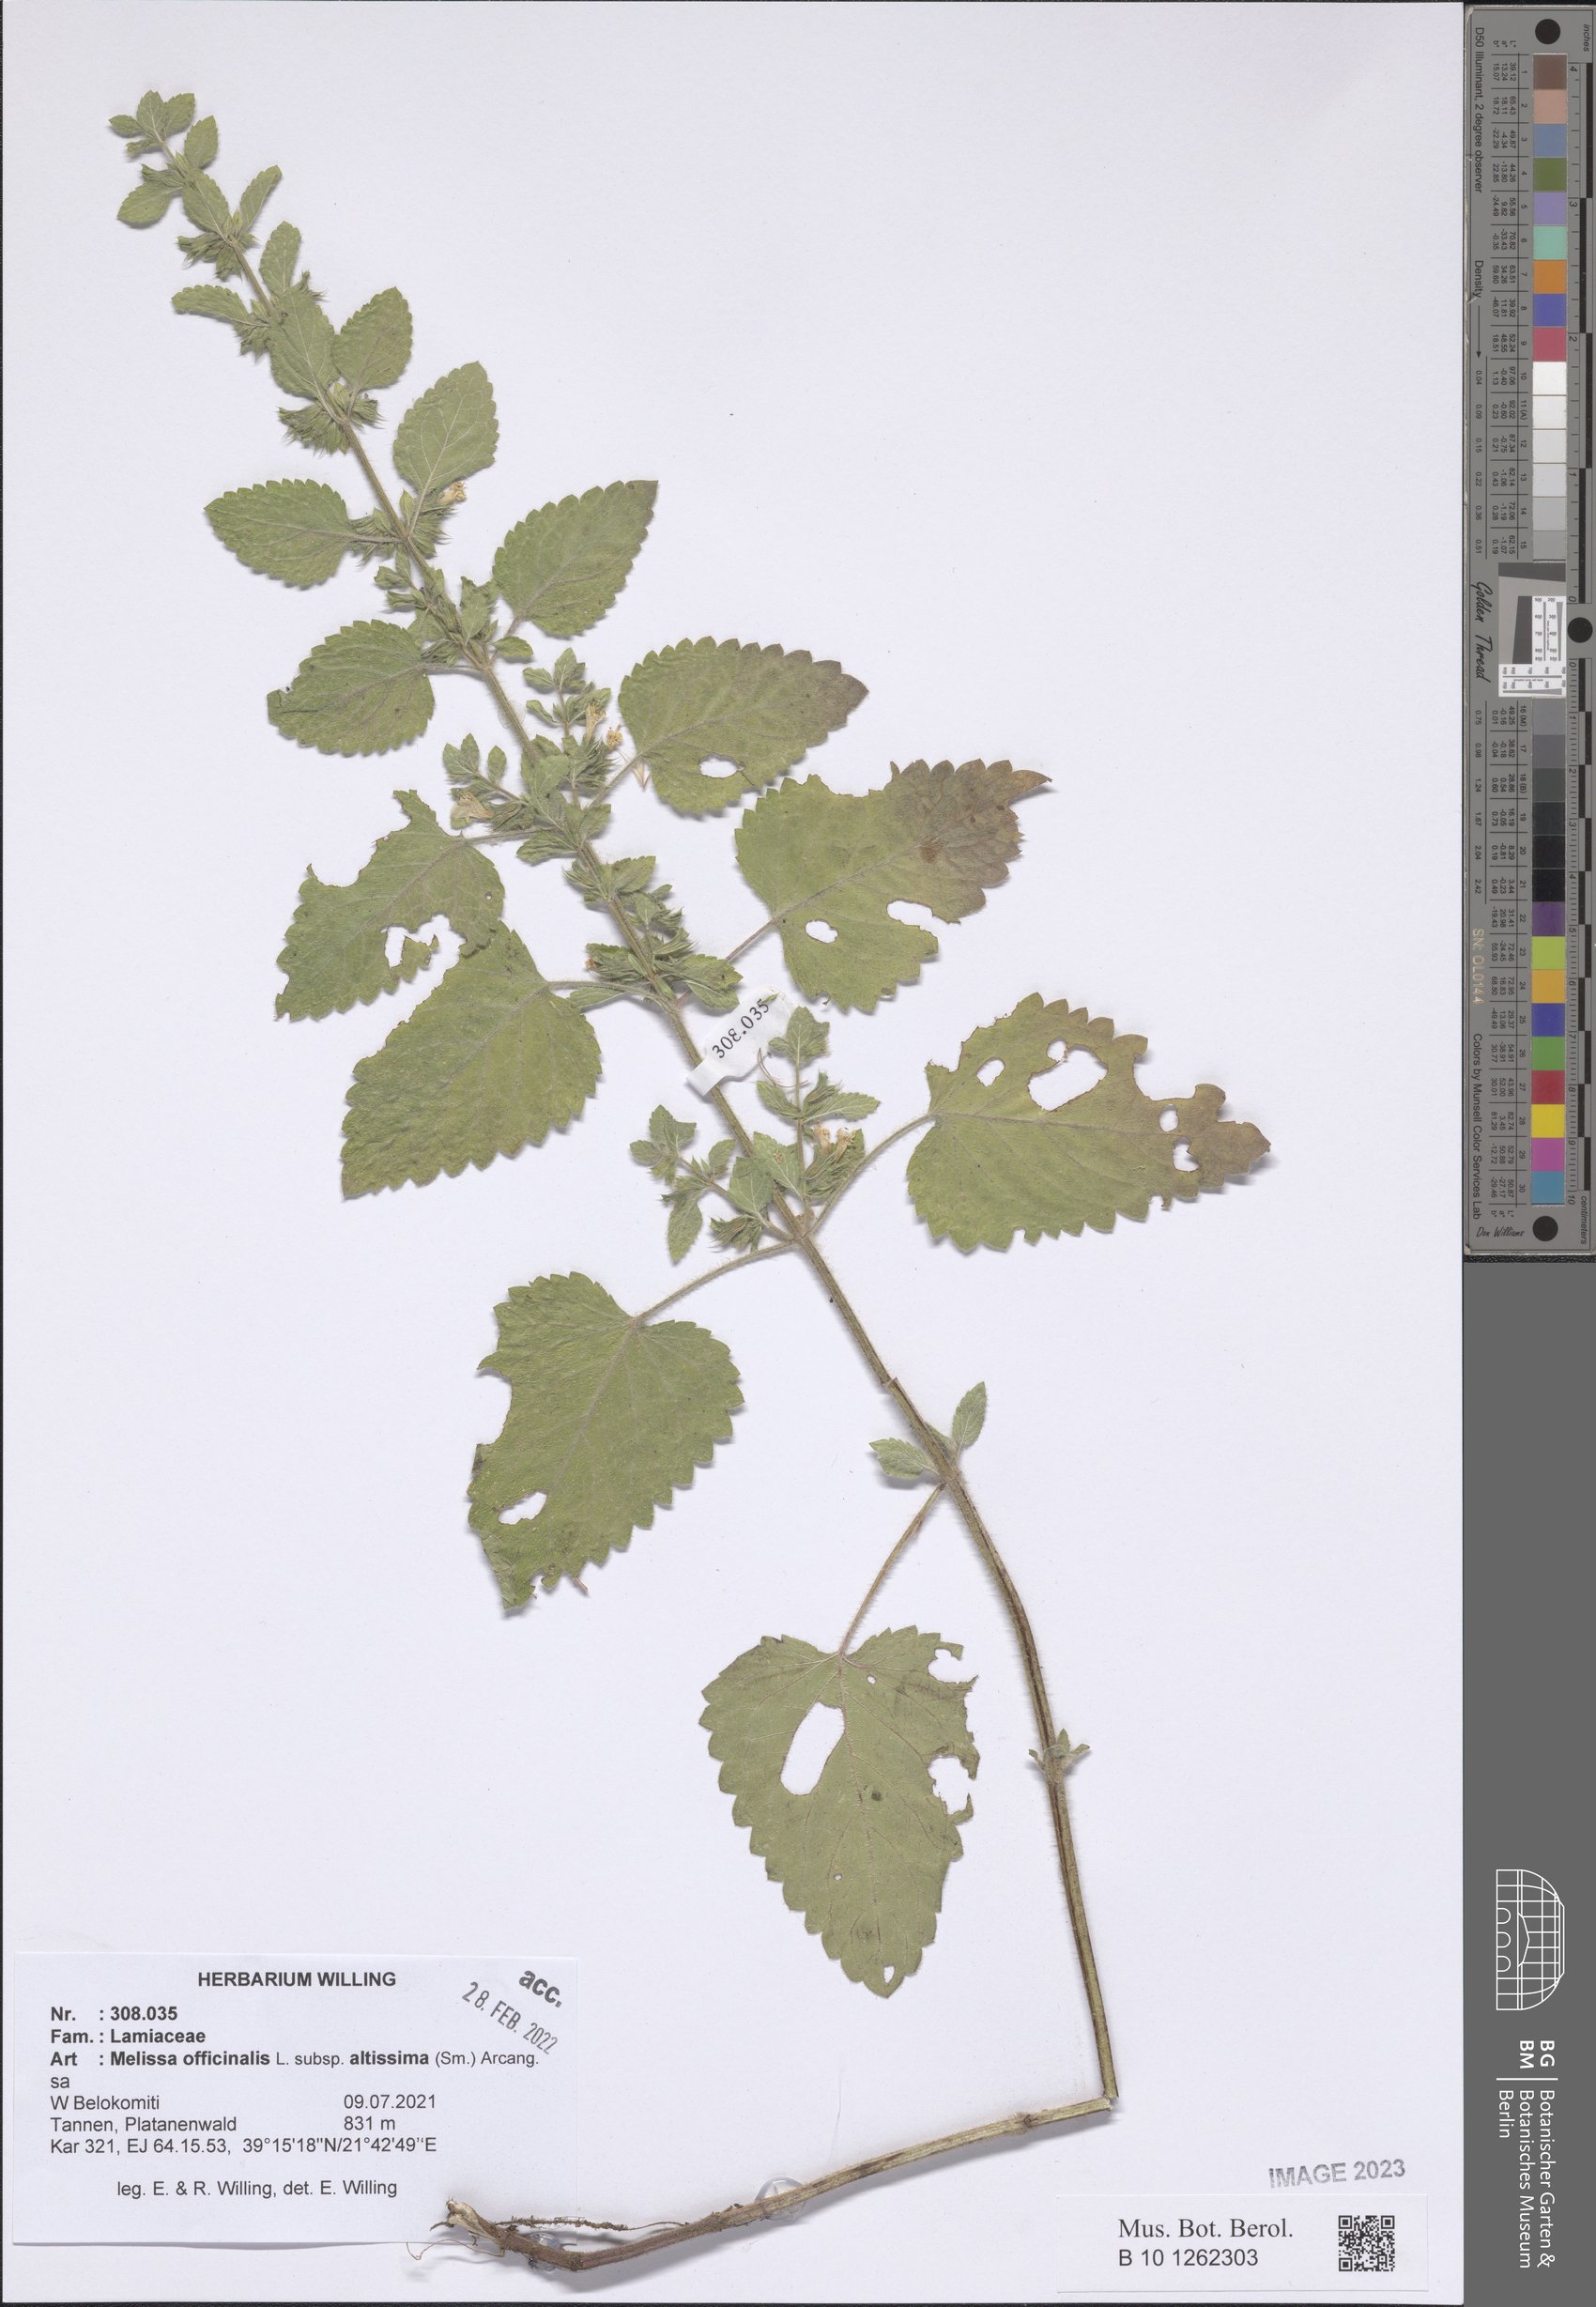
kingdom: Plantae
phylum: Tracheophyta
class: Magnoliopsida
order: Lamiales
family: Lamiaceae
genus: Melissa
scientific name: Melissa officinalis
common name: Balm
